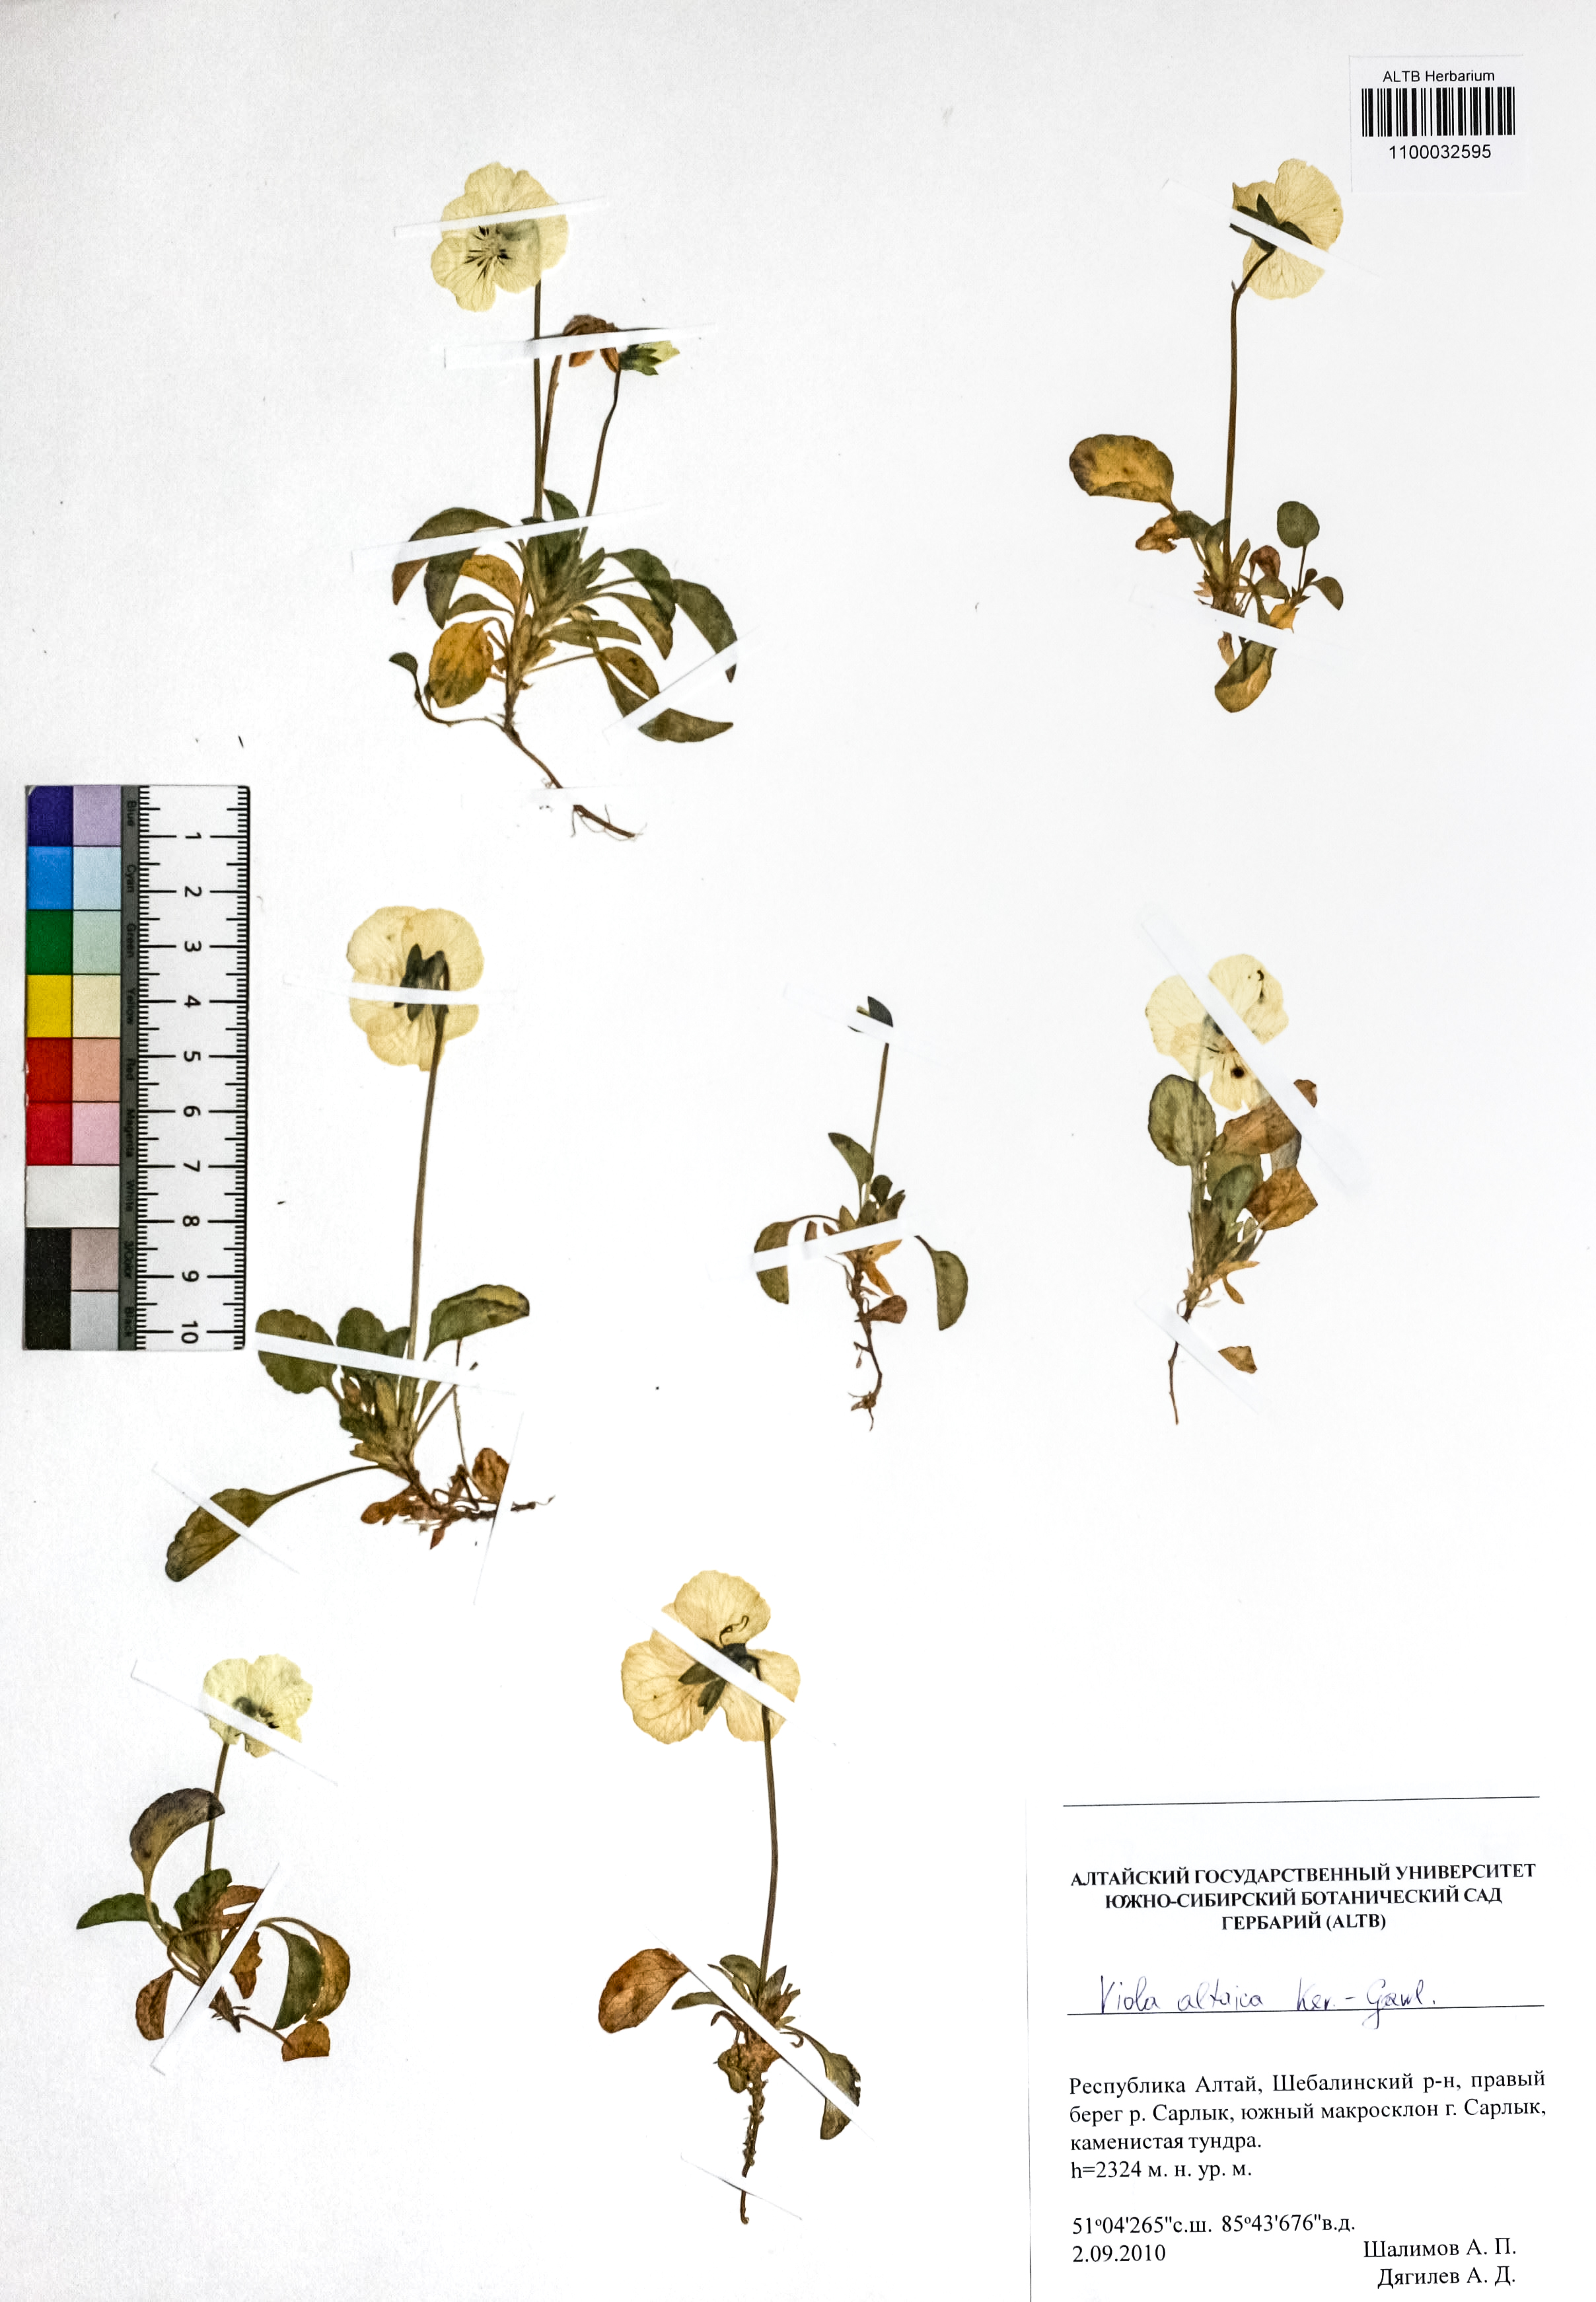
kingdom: Plantae
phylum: Tracheophyta
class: Magnoliopsida
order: Malpighiales
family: Violaceae
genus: Viola
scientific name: Viola altaica
